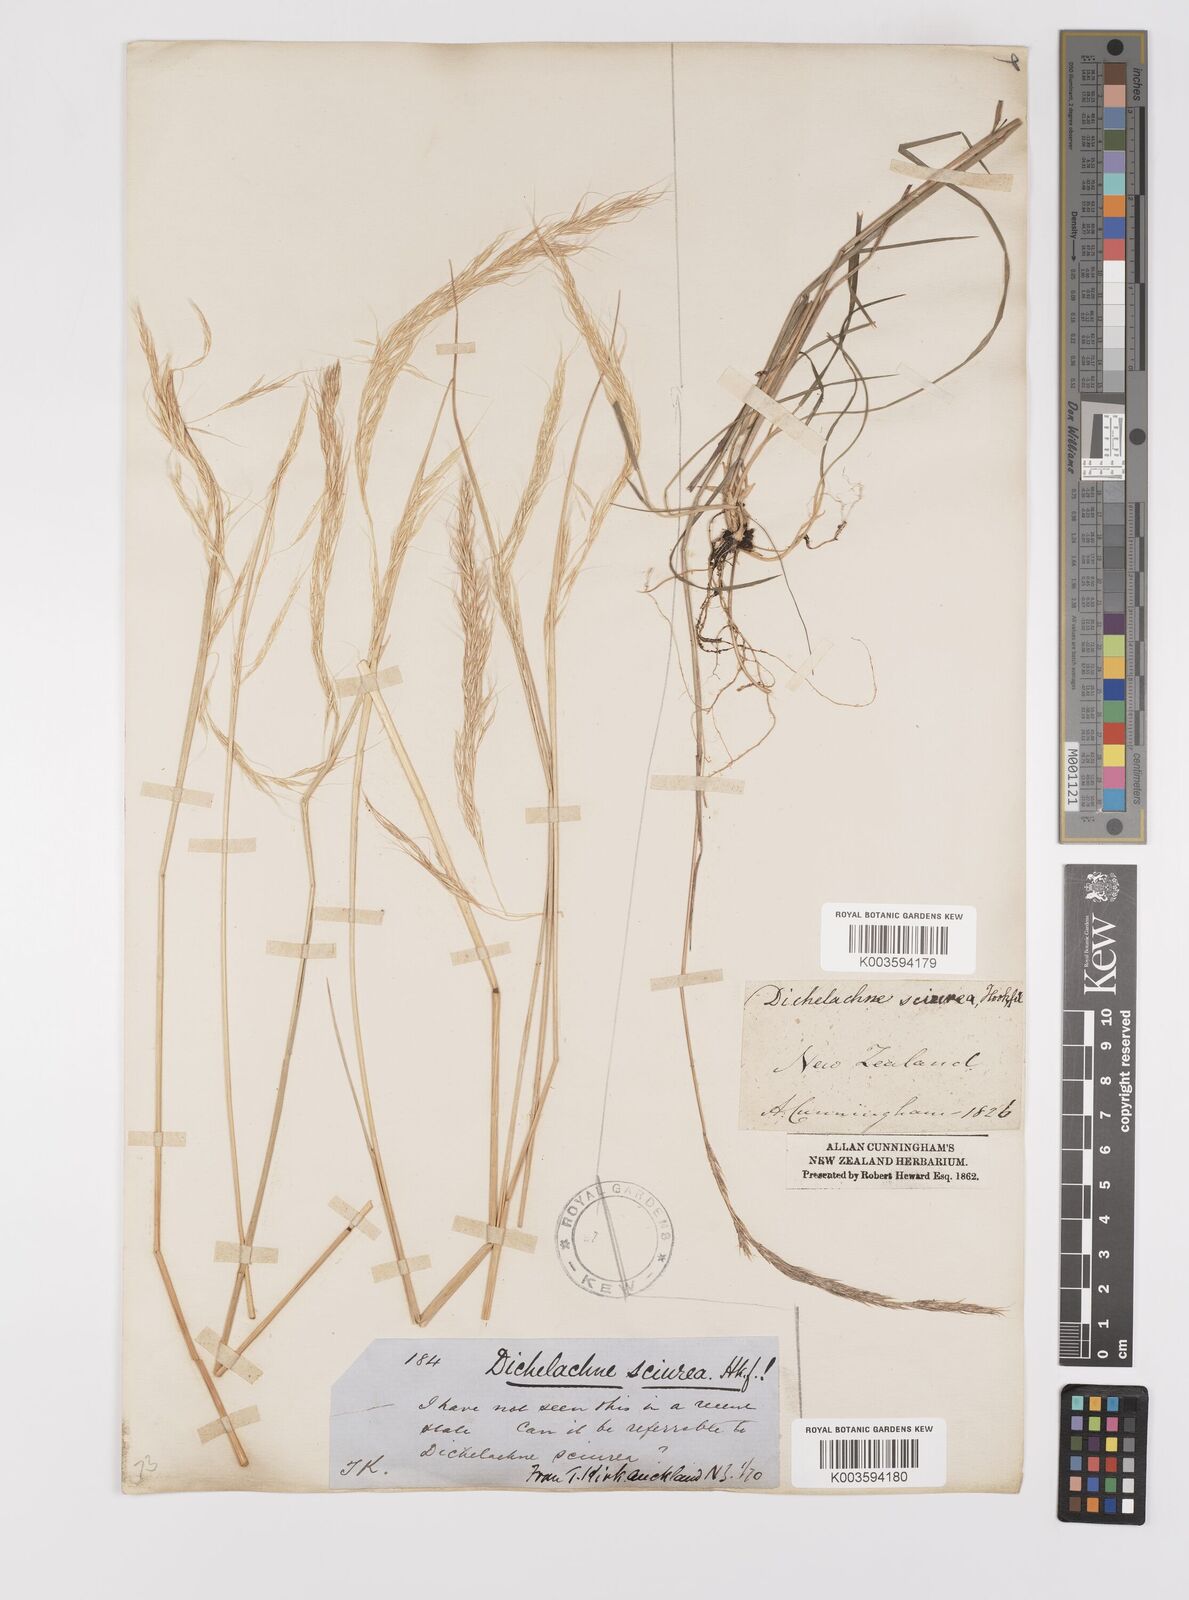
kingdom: Plantae
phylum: Tracheophyta
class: Liliopsida
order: Poales
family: Poaceae
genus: Dichelachne
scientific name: Dichelachne micrantha
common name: Plumegrass
